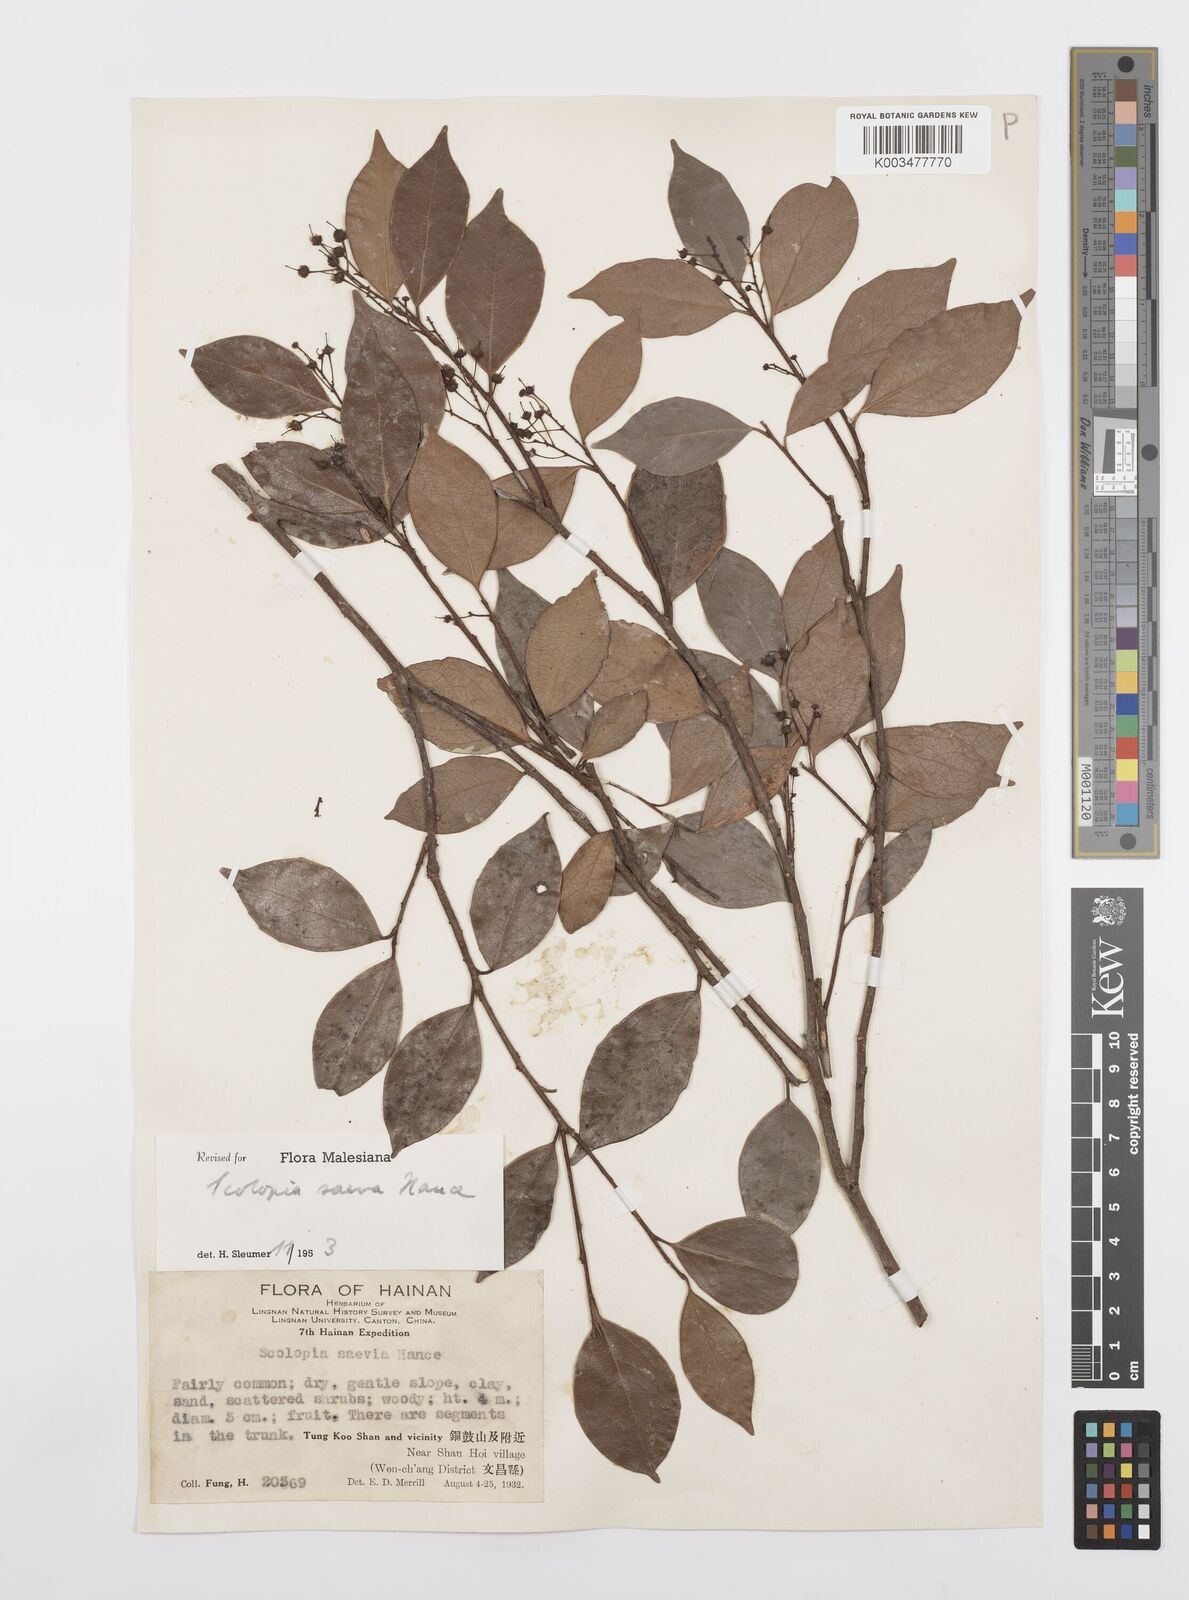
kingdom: Plantae
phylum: Tracheophyta
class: Magnoliopsida
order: Malpighiales
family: Salicaceae
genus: Scolopia
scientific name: Scolopia saeva
